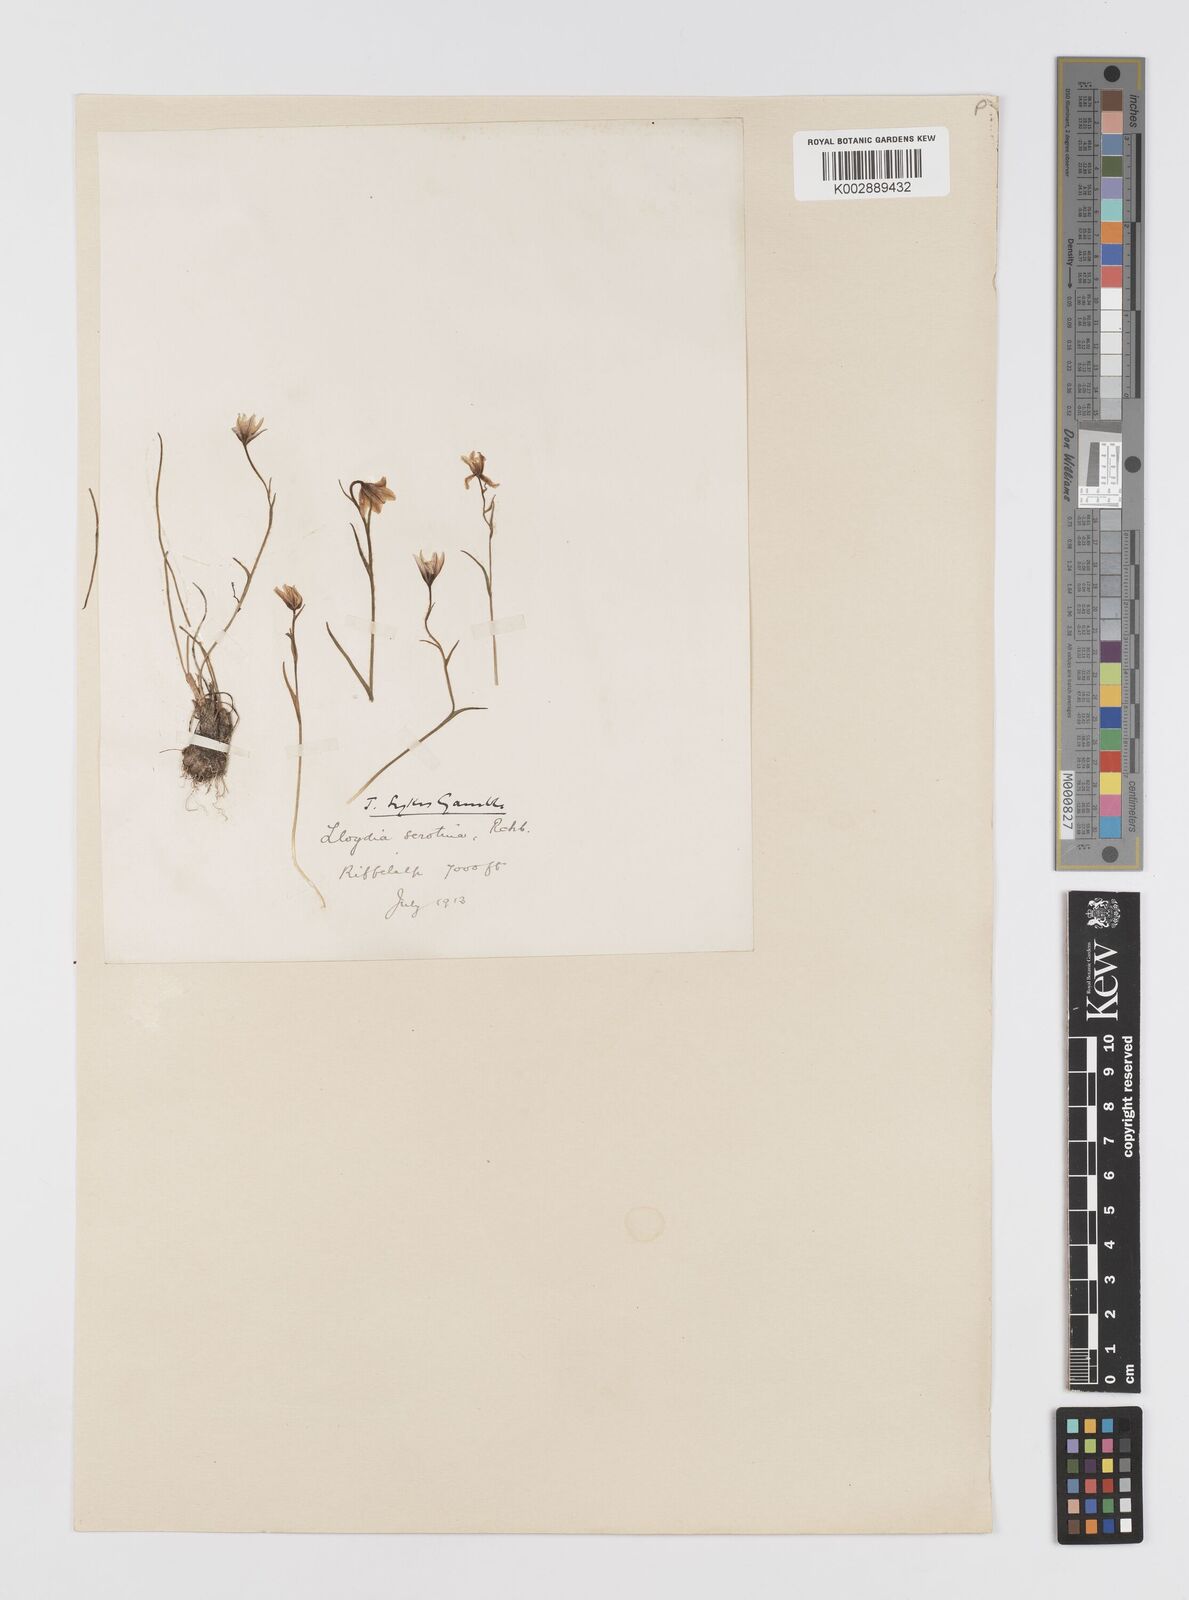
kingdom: Plantae
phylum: Tracheophyta
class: Liliopsida
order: Liliales
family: Liliaceae
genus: Gagea
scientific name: Gagea
